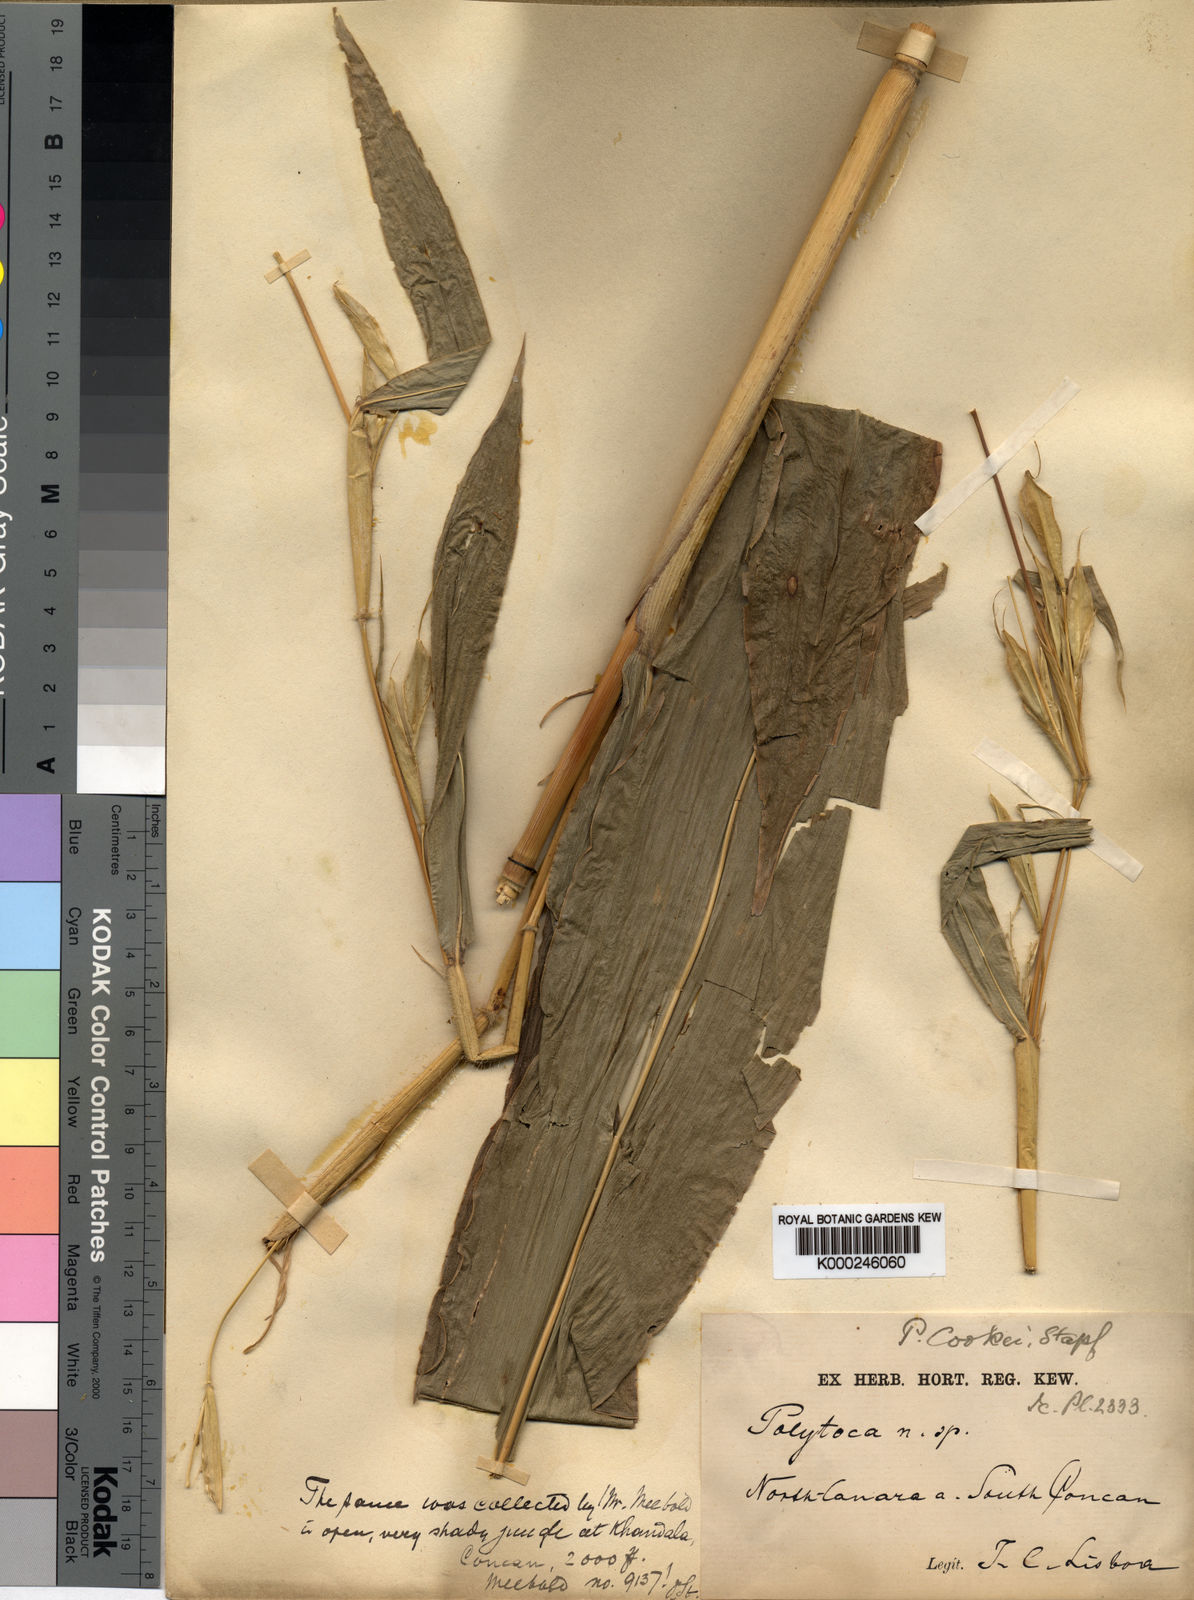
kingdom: Plantae
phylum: Tracheophyta
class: Liliopsida
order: Poales
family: Poaceae
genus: Trilobachne
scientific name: Trilobachne cookei
